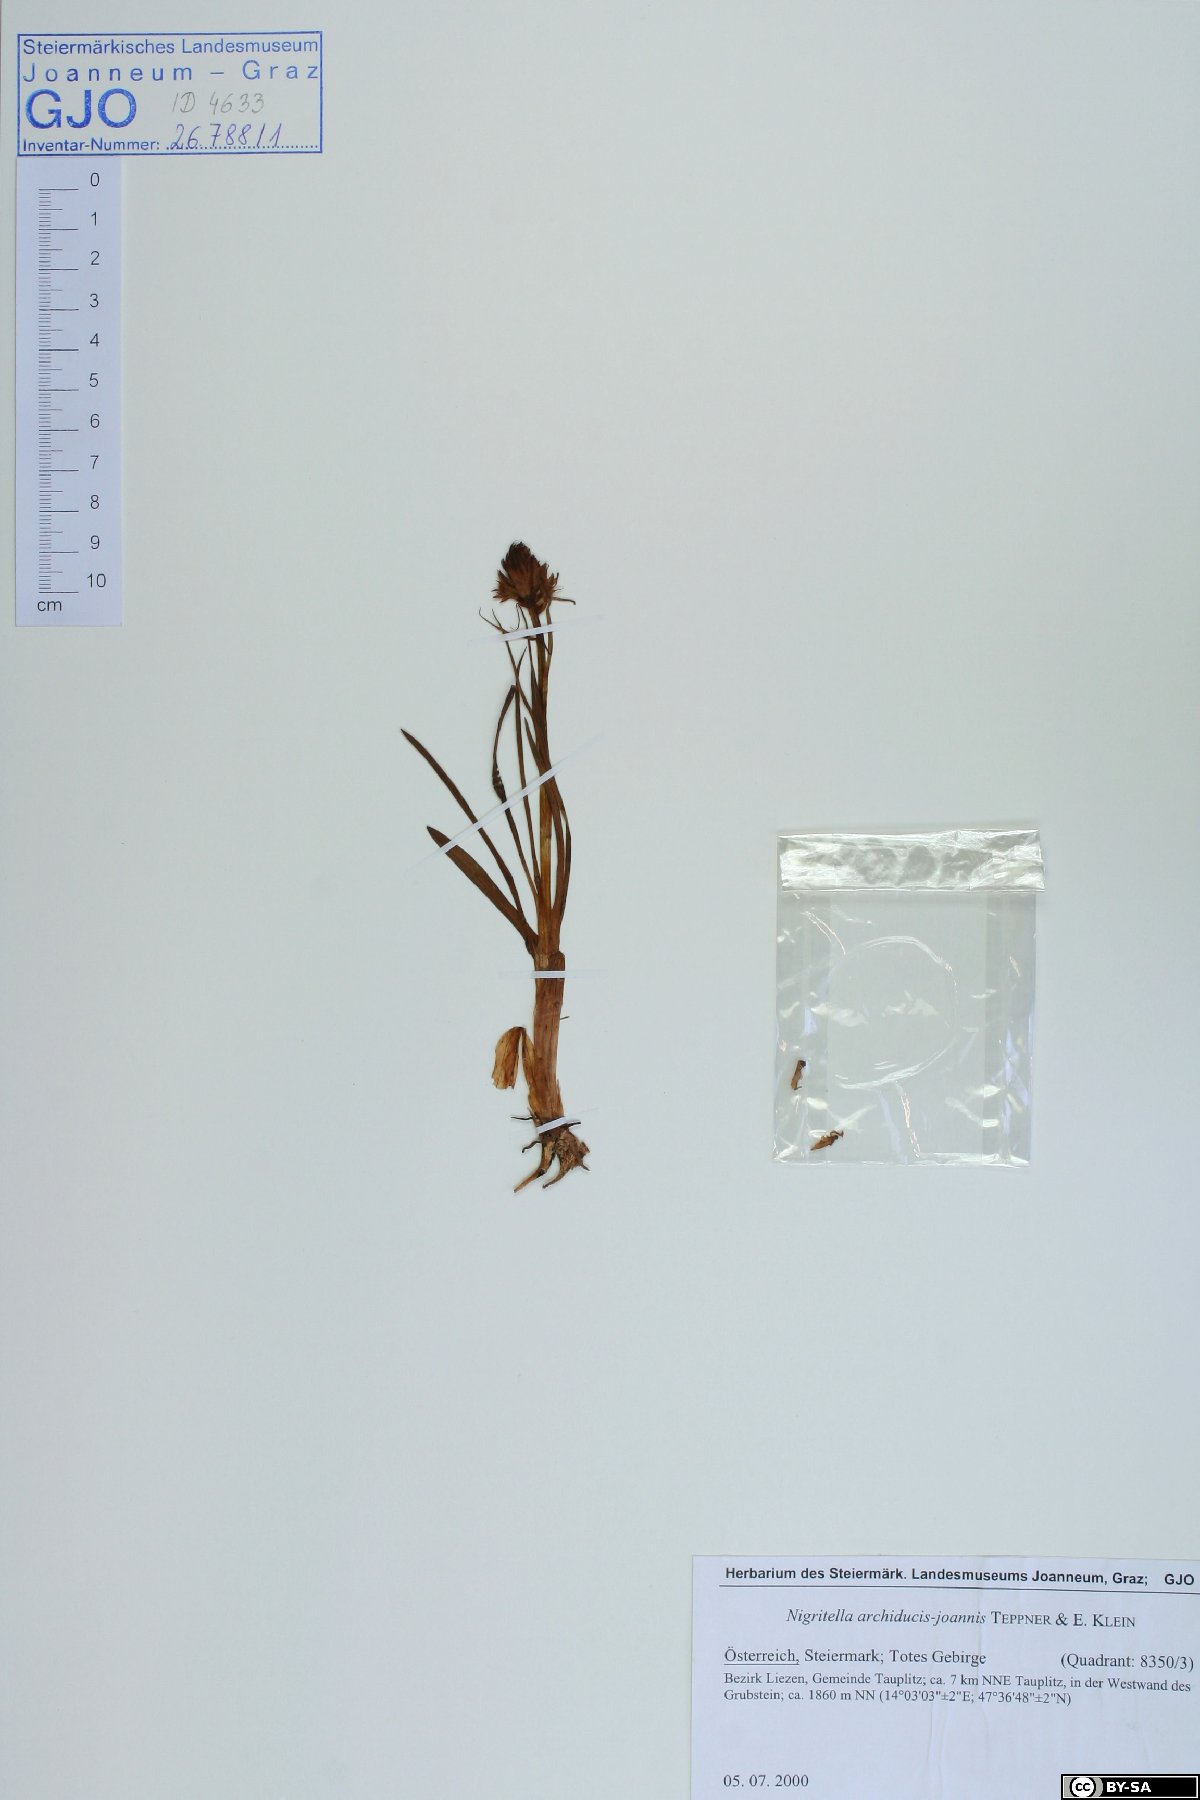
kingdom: Plantae
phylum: Tracheophyta
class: Liliopsida
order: Asparagales
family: Orchidaceae
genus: Gymnadenia
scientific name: Gymnadenia archiducis-joannis
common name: Austrian gymnadenia
